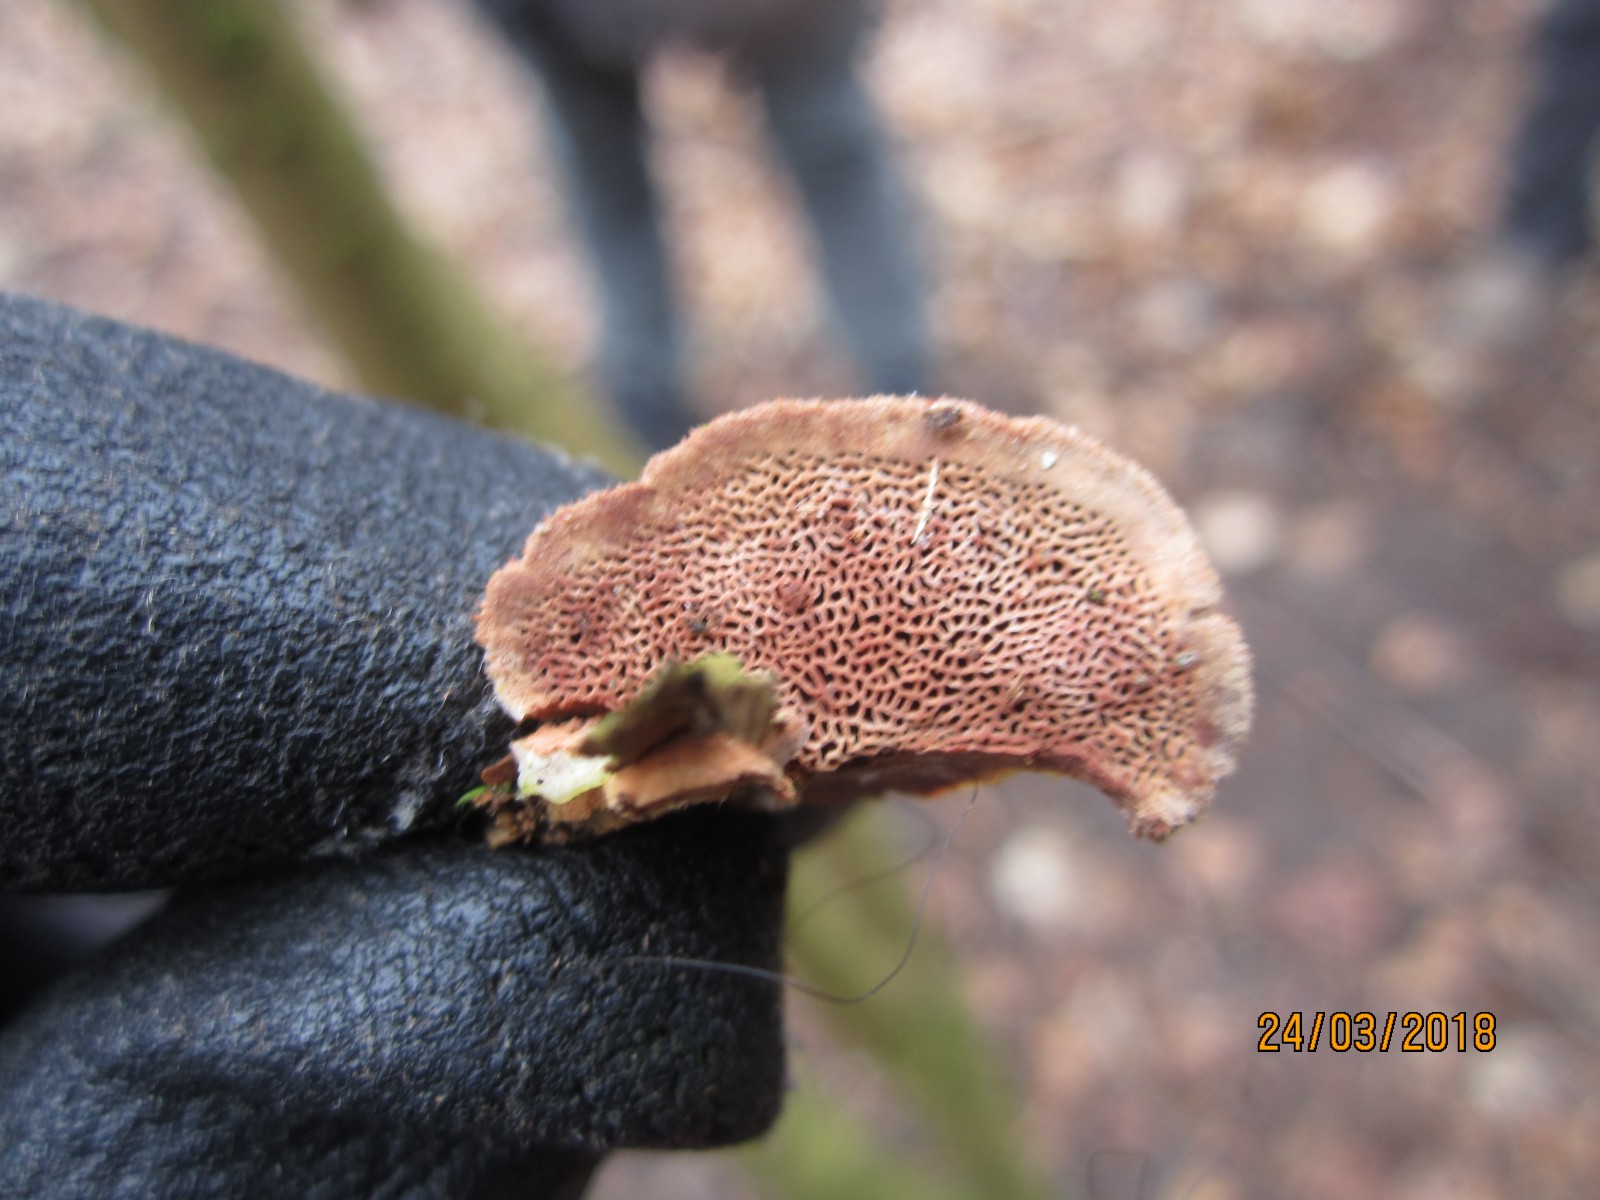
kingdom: Fungi
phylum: Basidiomycota
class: Agaricomycetes
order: Polyporales
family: Phanerochaetaceae
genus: Hapalopilus
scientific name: Hapalopilus rutilans
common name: rødlig okkerporesvamp
